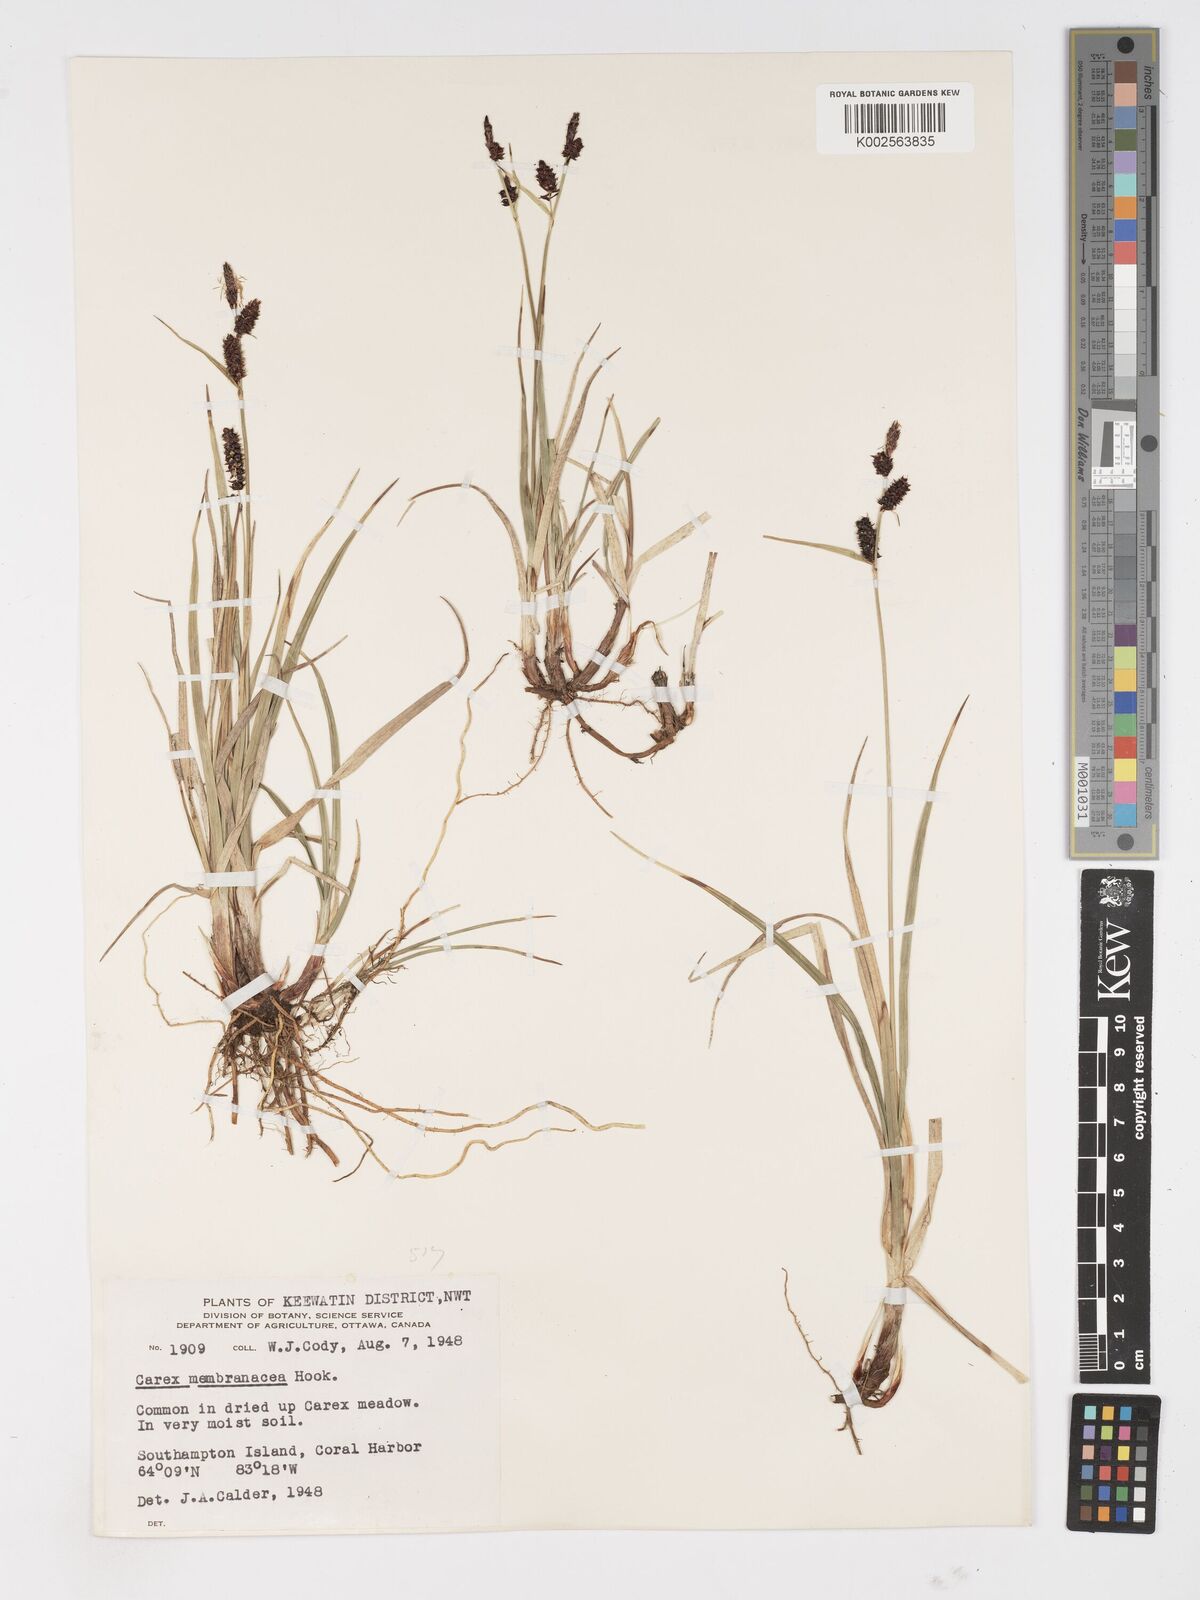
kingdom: Plantae
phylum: Tracheophyta
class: Liliopsida
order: Poales
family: Cyperaceae
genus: Carex
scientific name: Carex membranacea
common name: Fragile sedge
